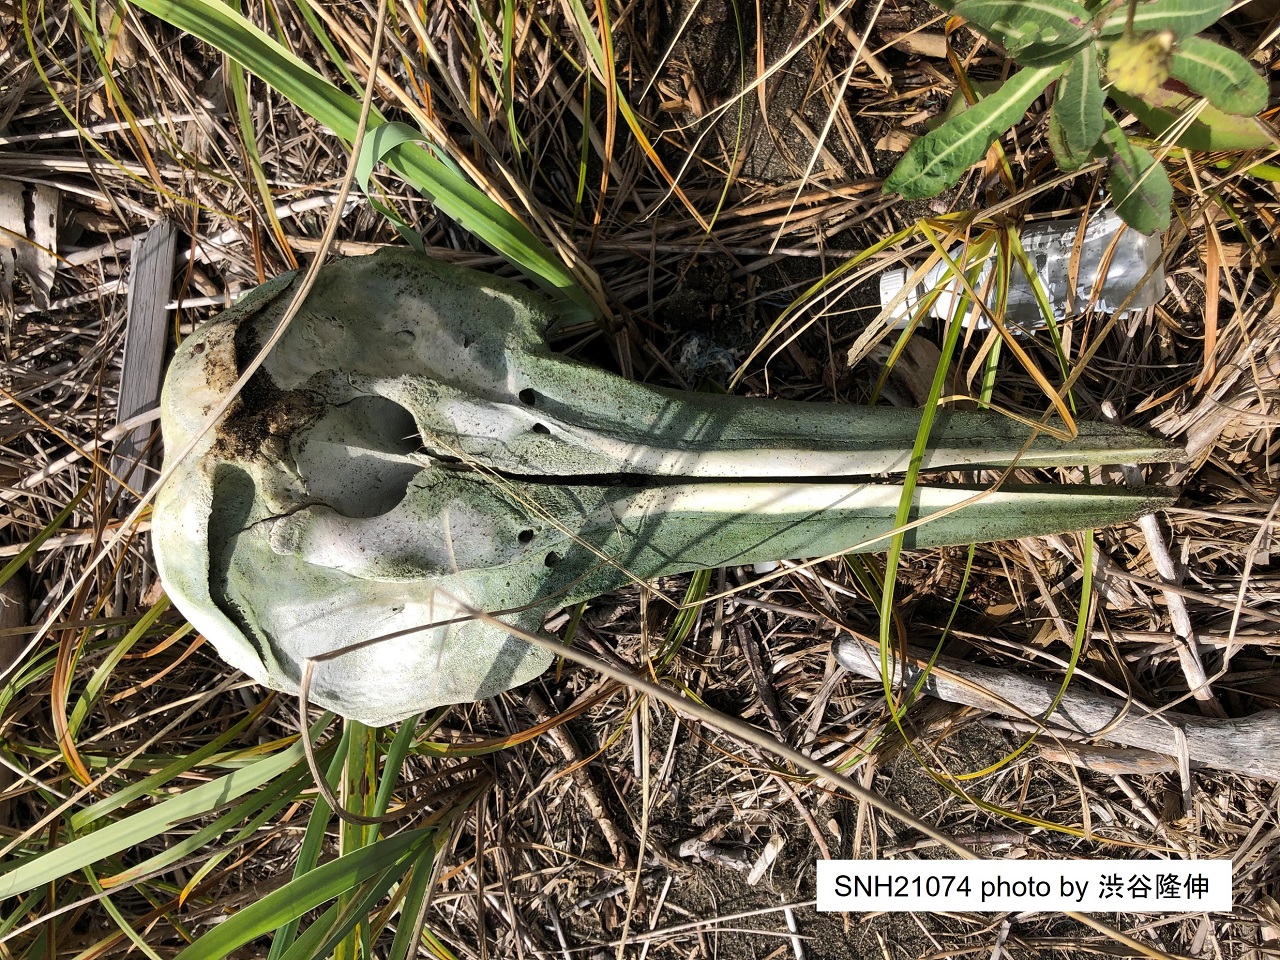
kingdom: Animalia
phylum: Chordata
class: Mammalia
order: Cetacea
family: Delphinidae
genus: Stenella
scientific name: Stenella coeruleoalba
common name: Striped dolphin
